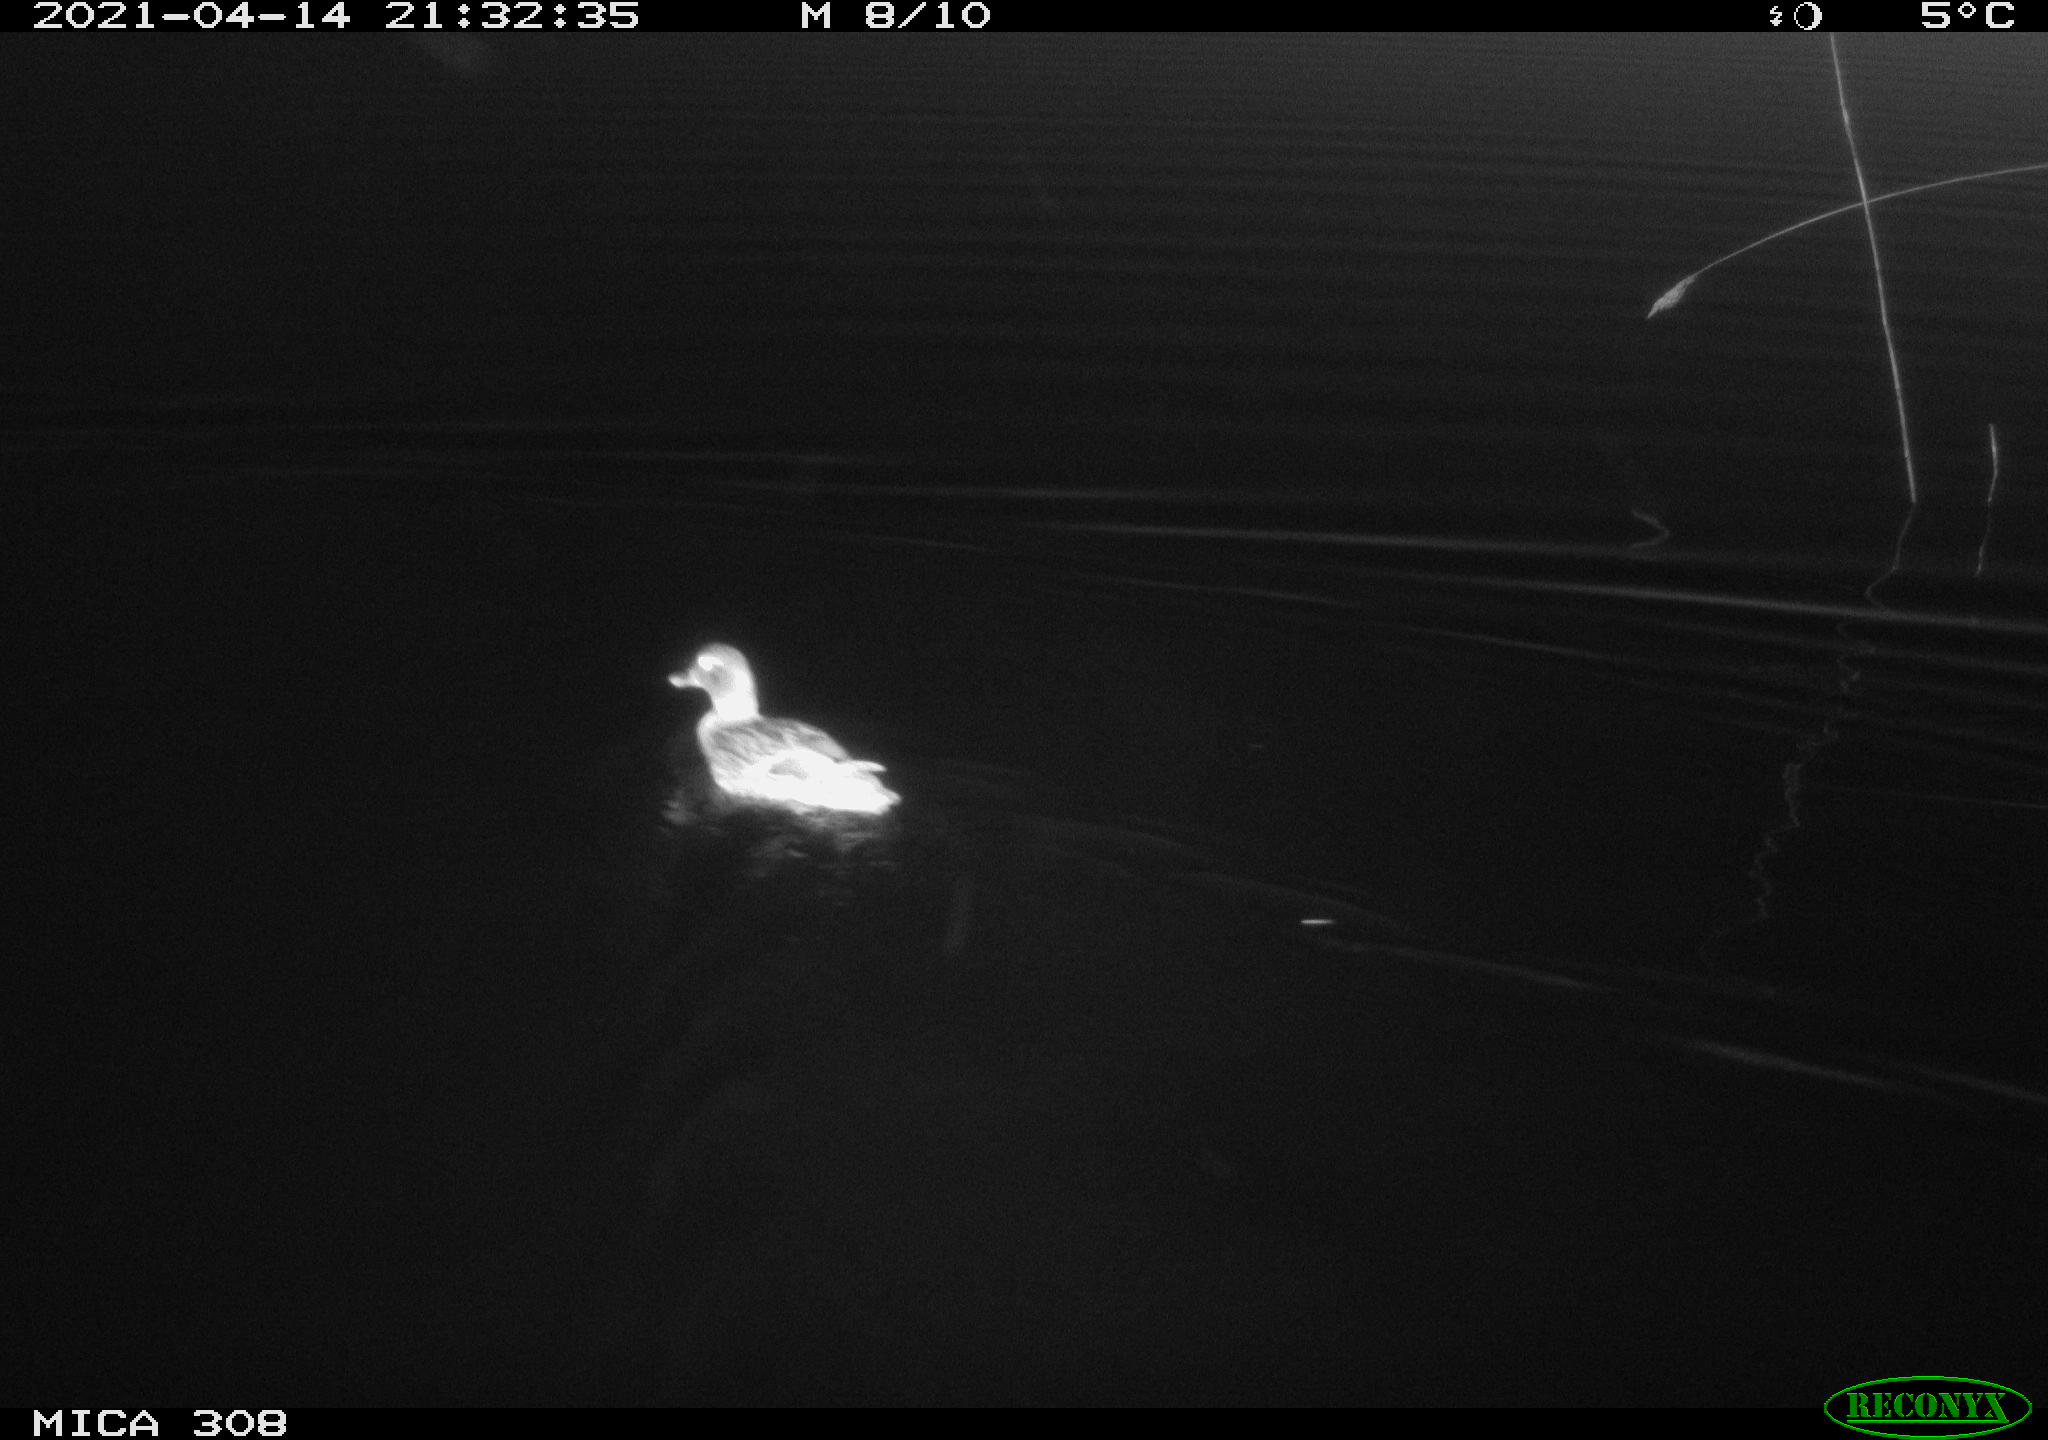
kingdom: Animalia
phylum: Chordata
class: Aves
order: Anseriformes
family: Anatidae
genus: Anas
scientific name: Anas platyrhynchos
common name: Mallard
